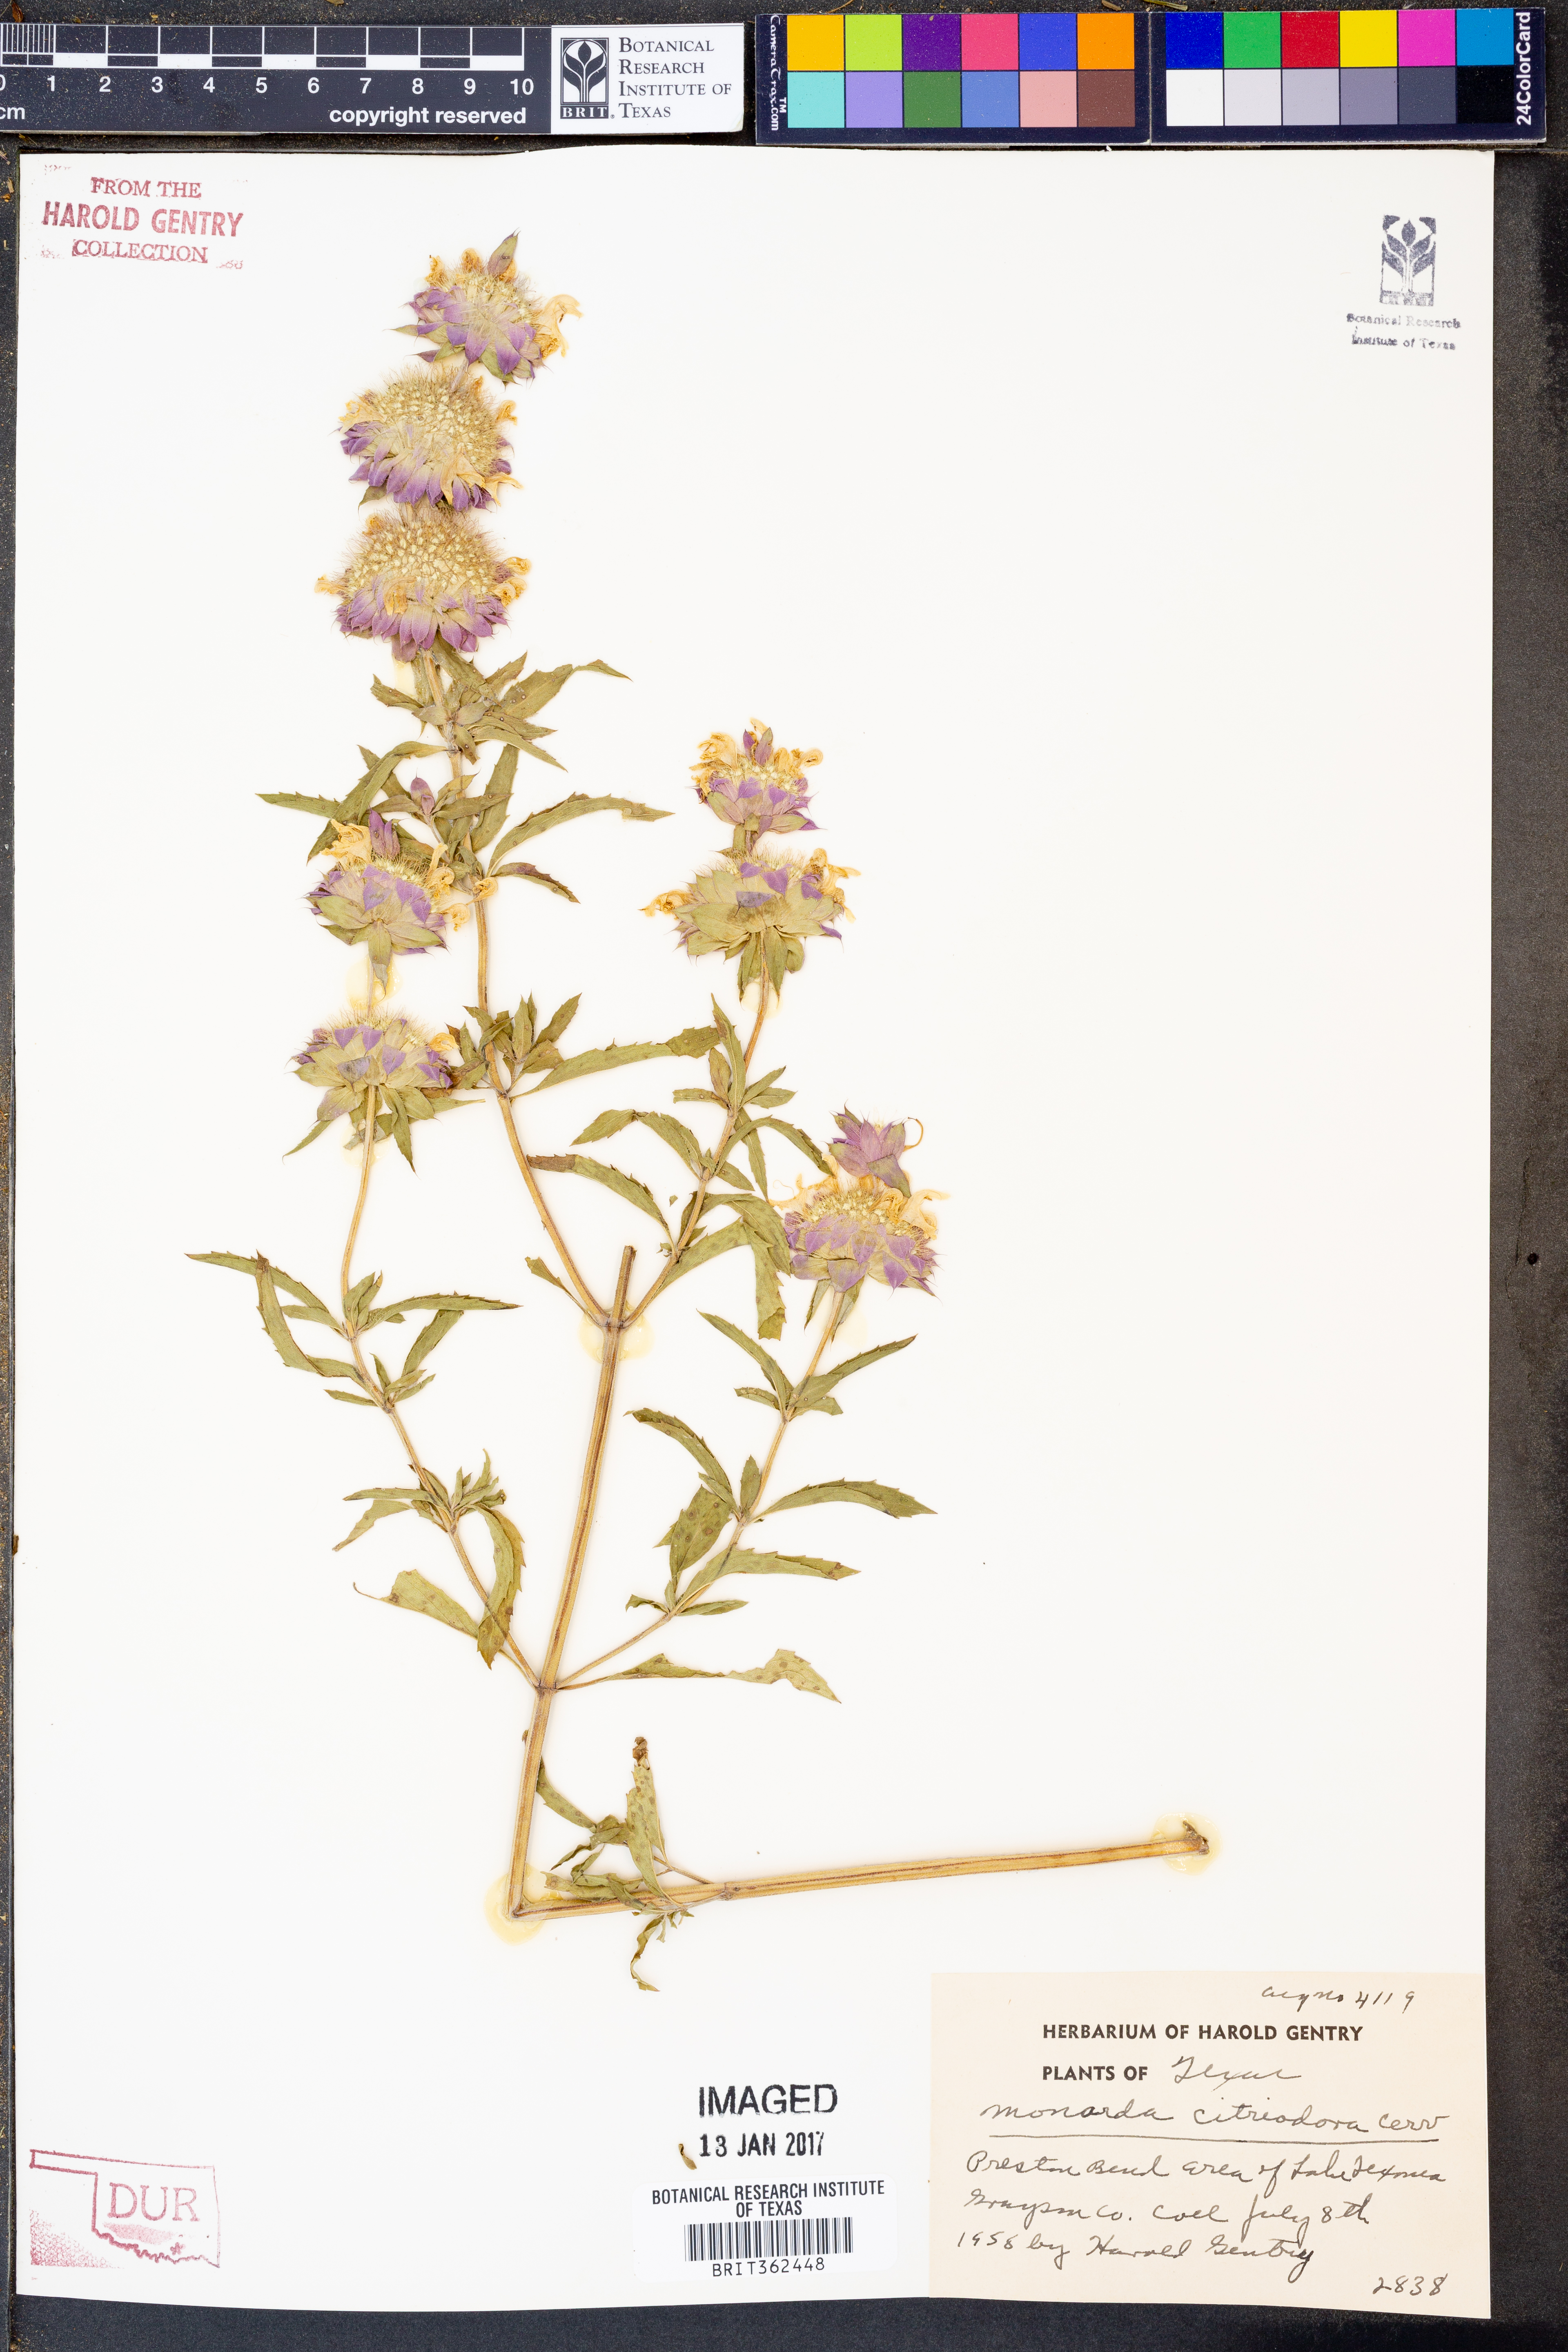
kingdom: Plantae
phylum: Tracheophyta
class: Magnoliopsida
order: Lamiales
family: Lamiaceae
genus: Monarda
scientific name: Monarda citriodora
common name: Lemon beebalm
